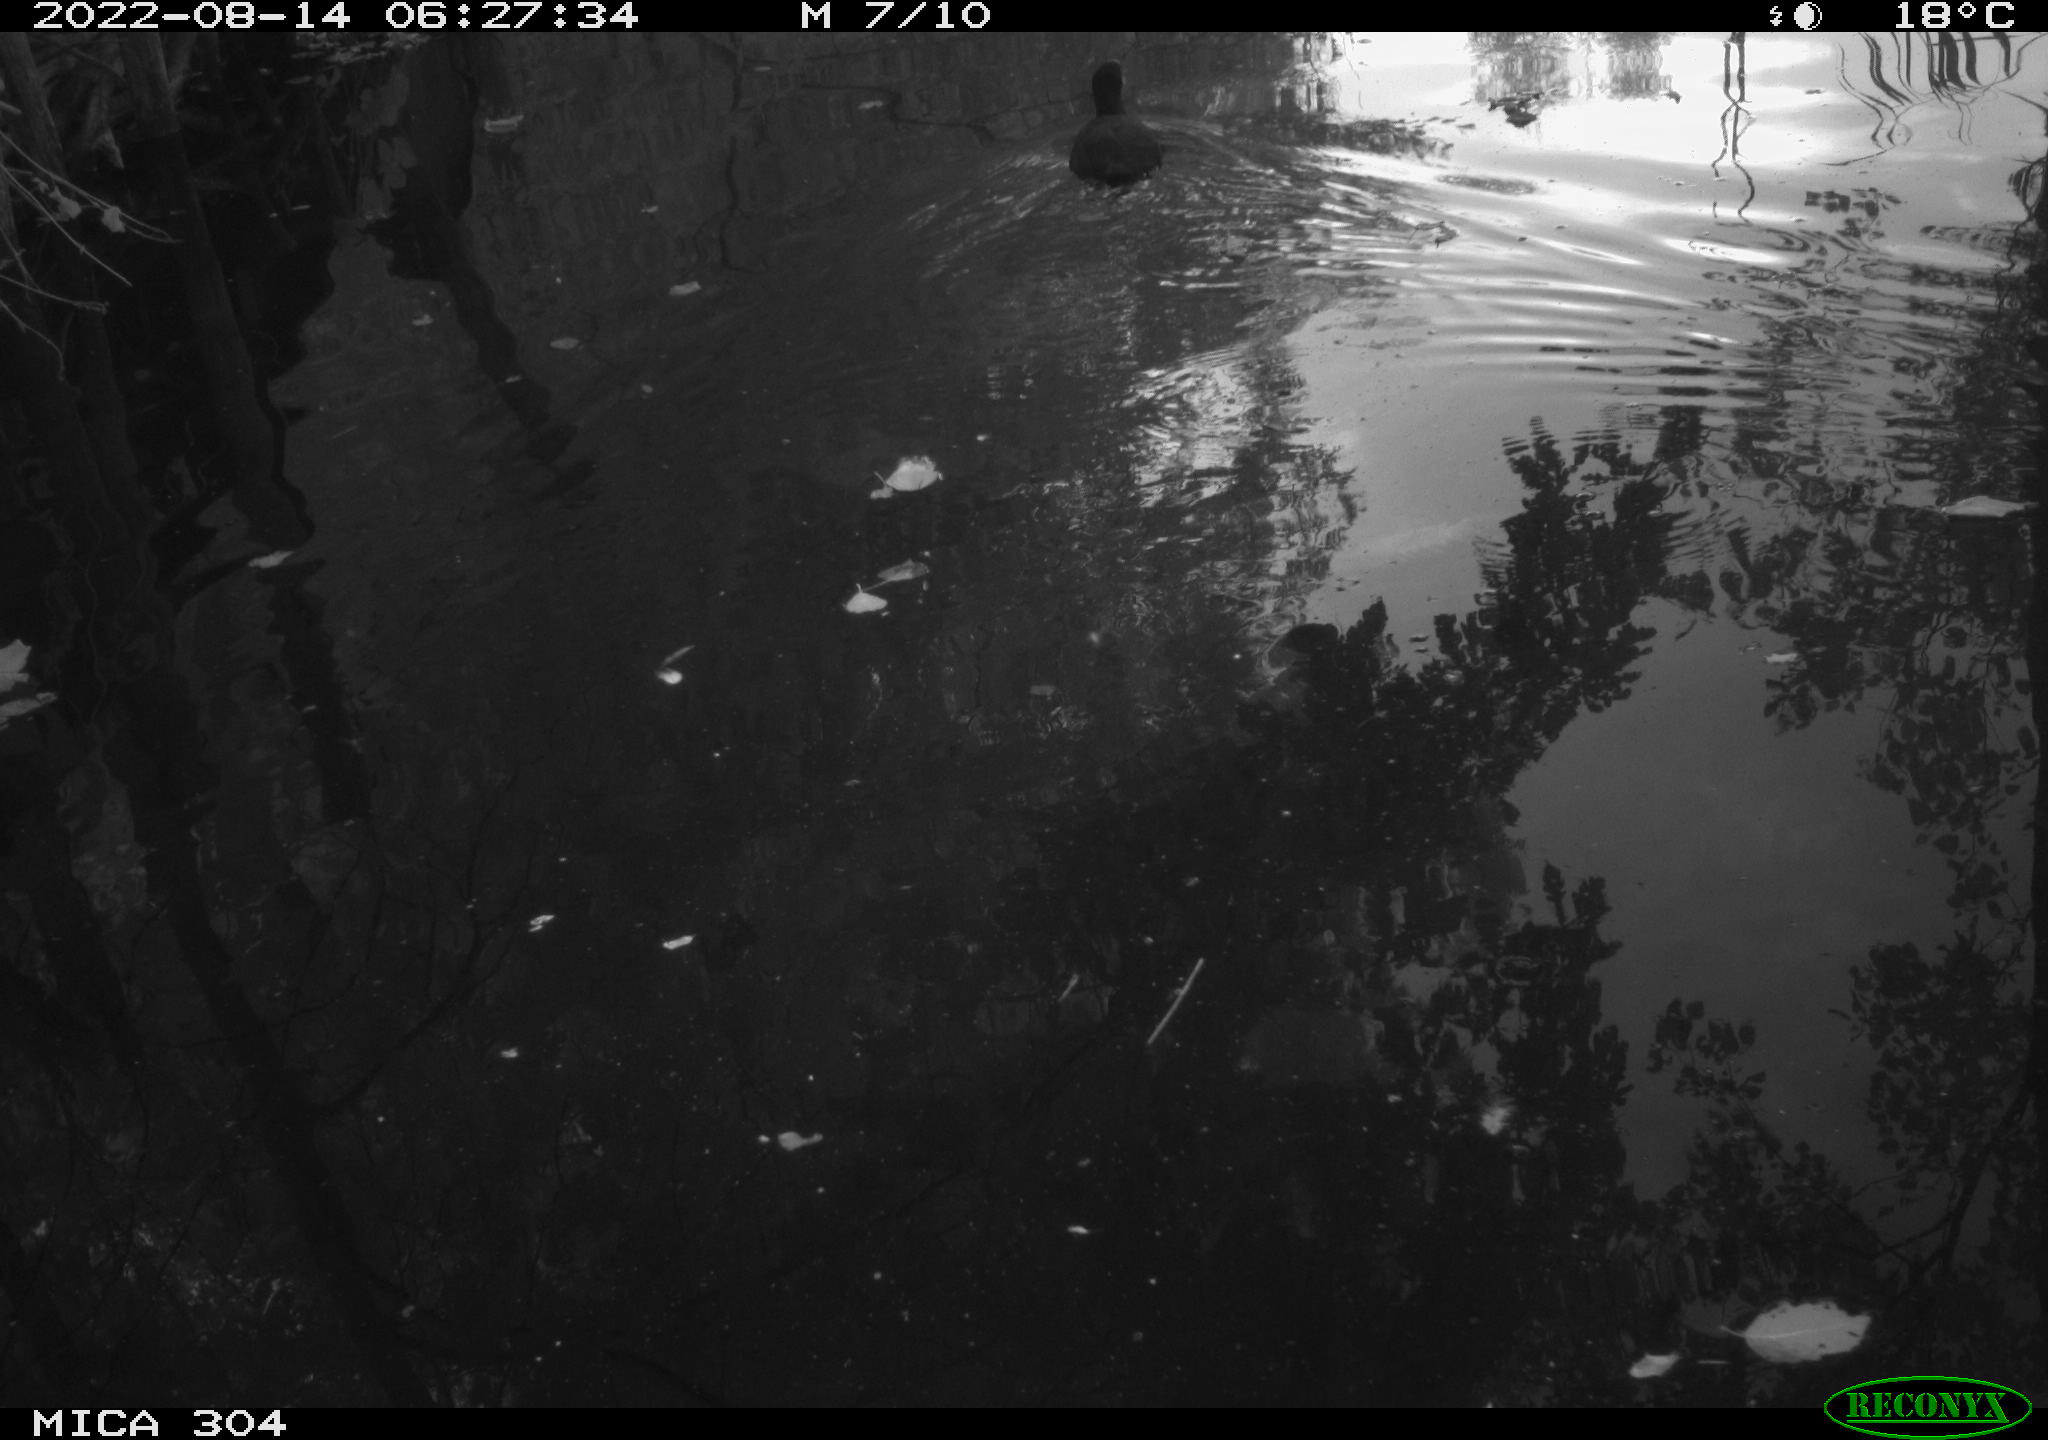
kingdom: Animalia
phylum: Chordata
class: Aves
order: Gruiformes
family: Rallidae
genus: Fulica
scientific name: Fulica atra
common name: Eurasian coot
